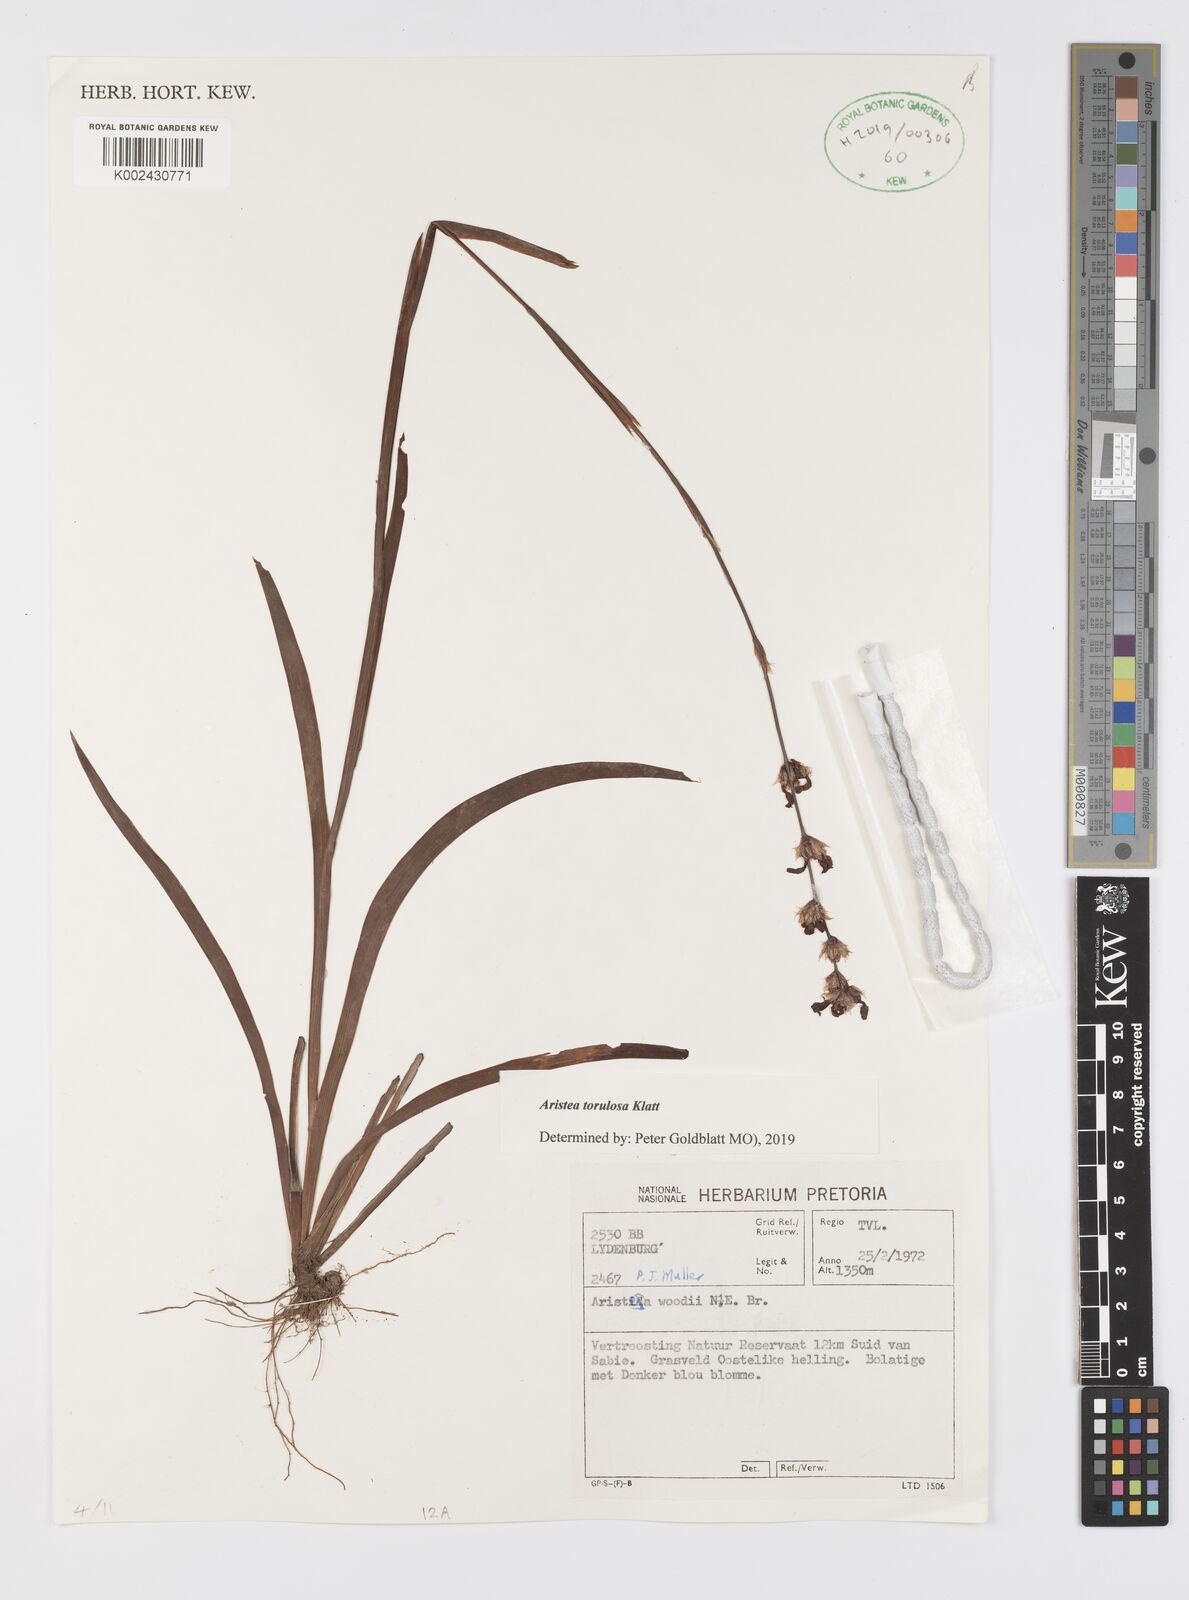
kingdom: Plantae
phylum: Tracheophyta
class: Liliopsida
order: Asparagales
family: Iridaceae
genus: Aristea
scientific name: Aristea torulosa
